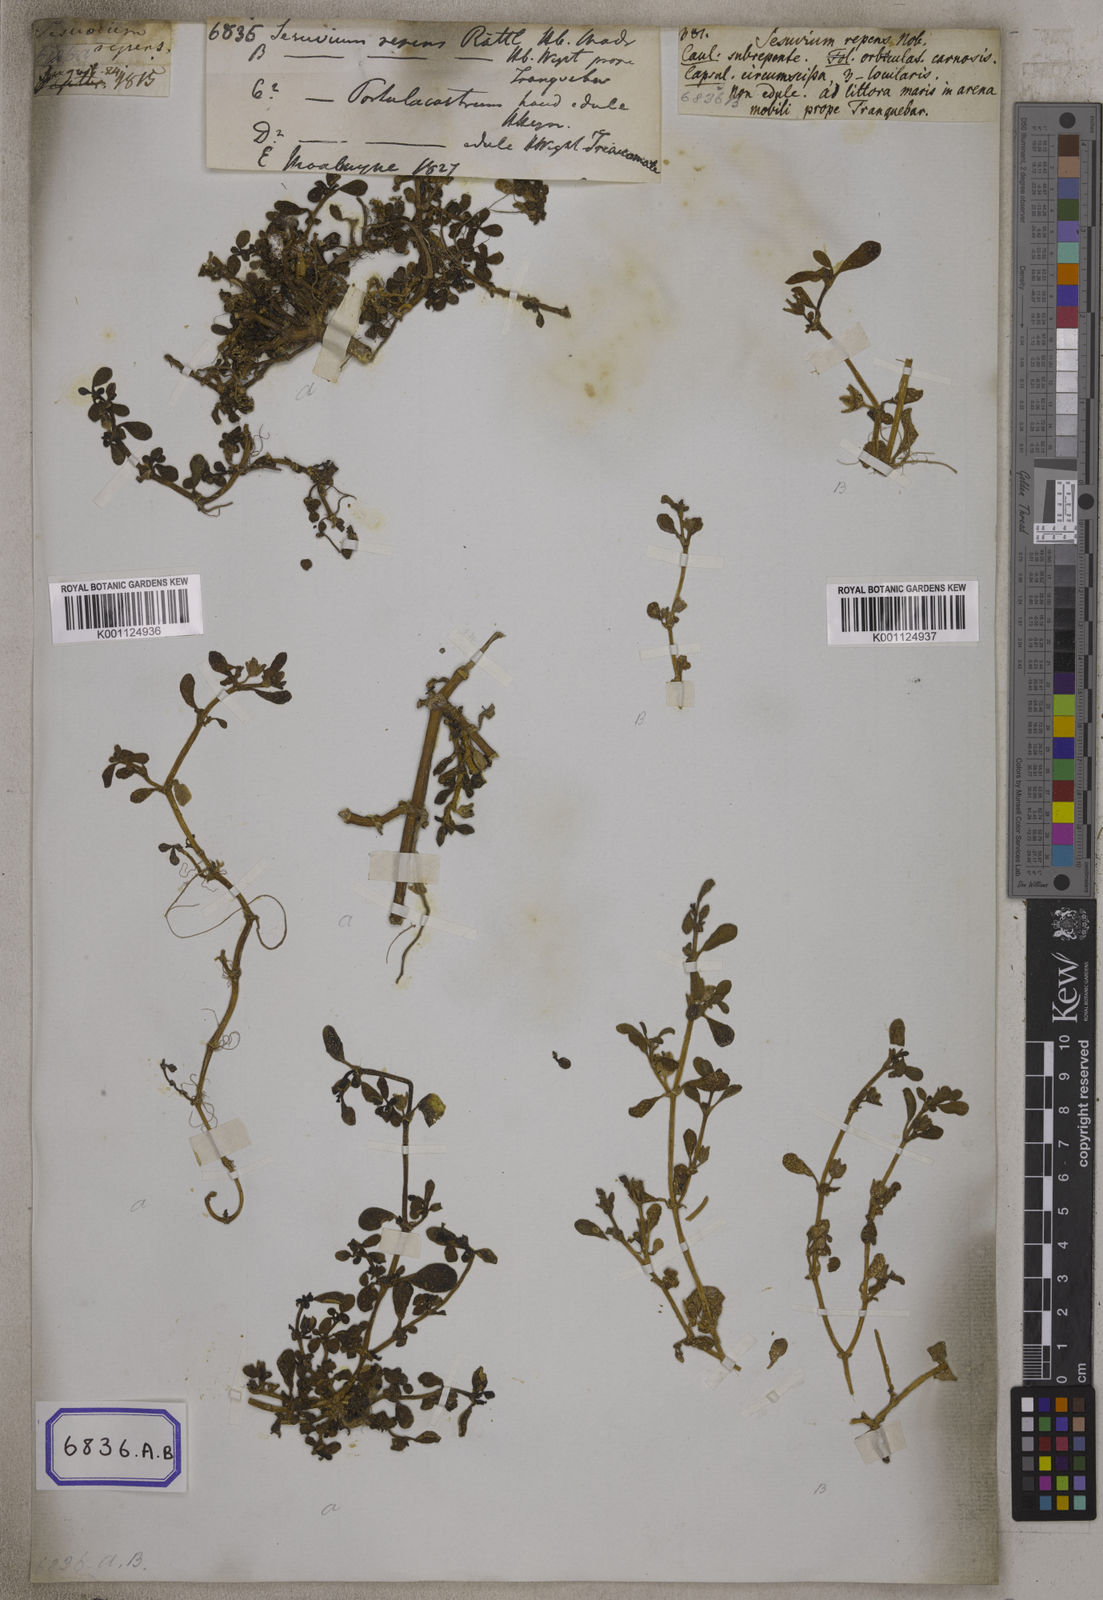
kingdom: Plantae
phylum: Tracheophyta
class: Magnoliopsida
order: Caryophyllales
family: Aizoaceae
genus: Sesuvium
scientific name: Sesuvium portulacastrum
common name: Sea-purslane
